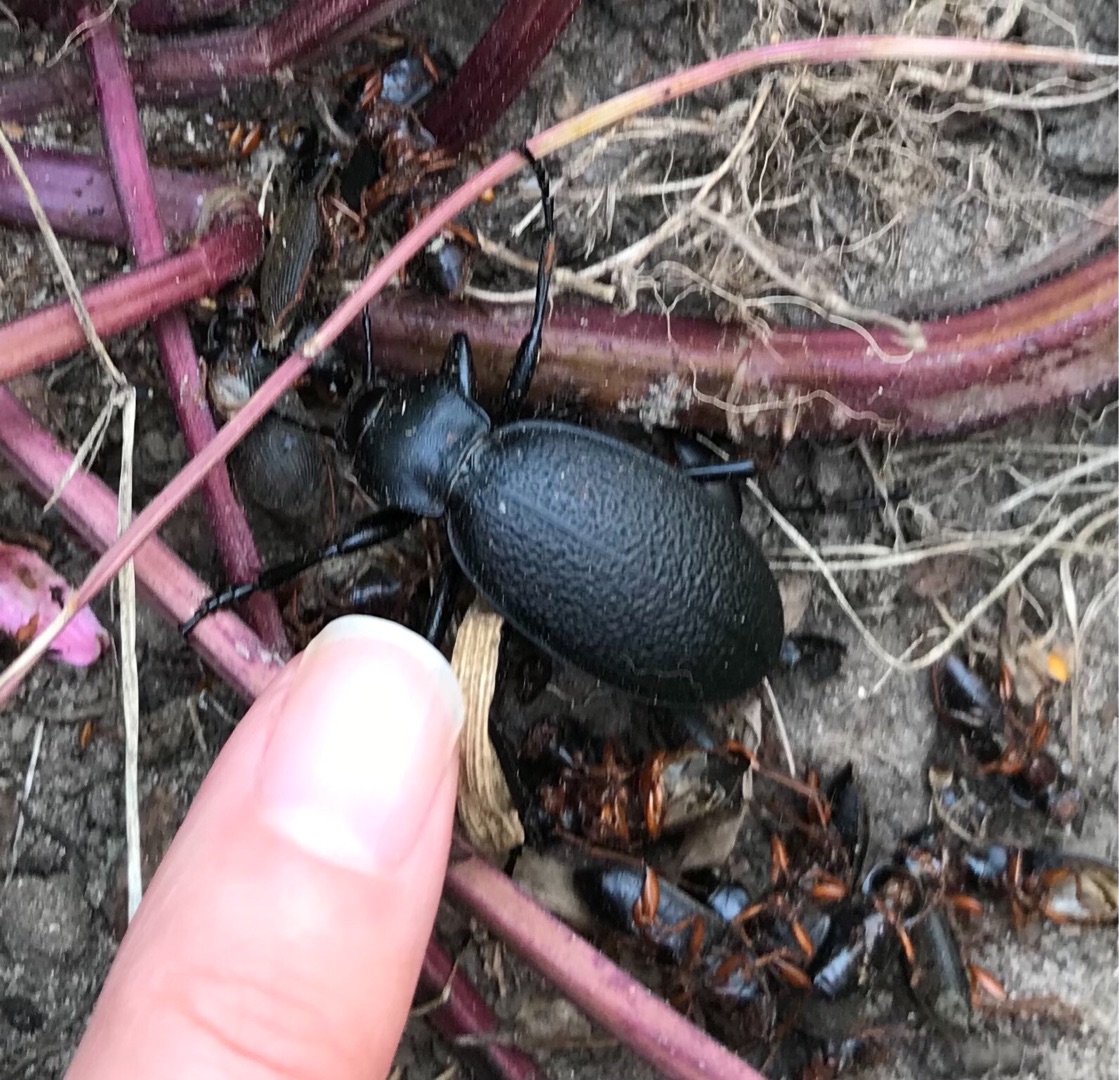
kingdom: Animalia
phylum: Arthropoda
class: Insecta
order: Coleoptera
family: Carabidae
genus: Carabus
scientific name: Carabus coriaceus
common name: Læderløber
